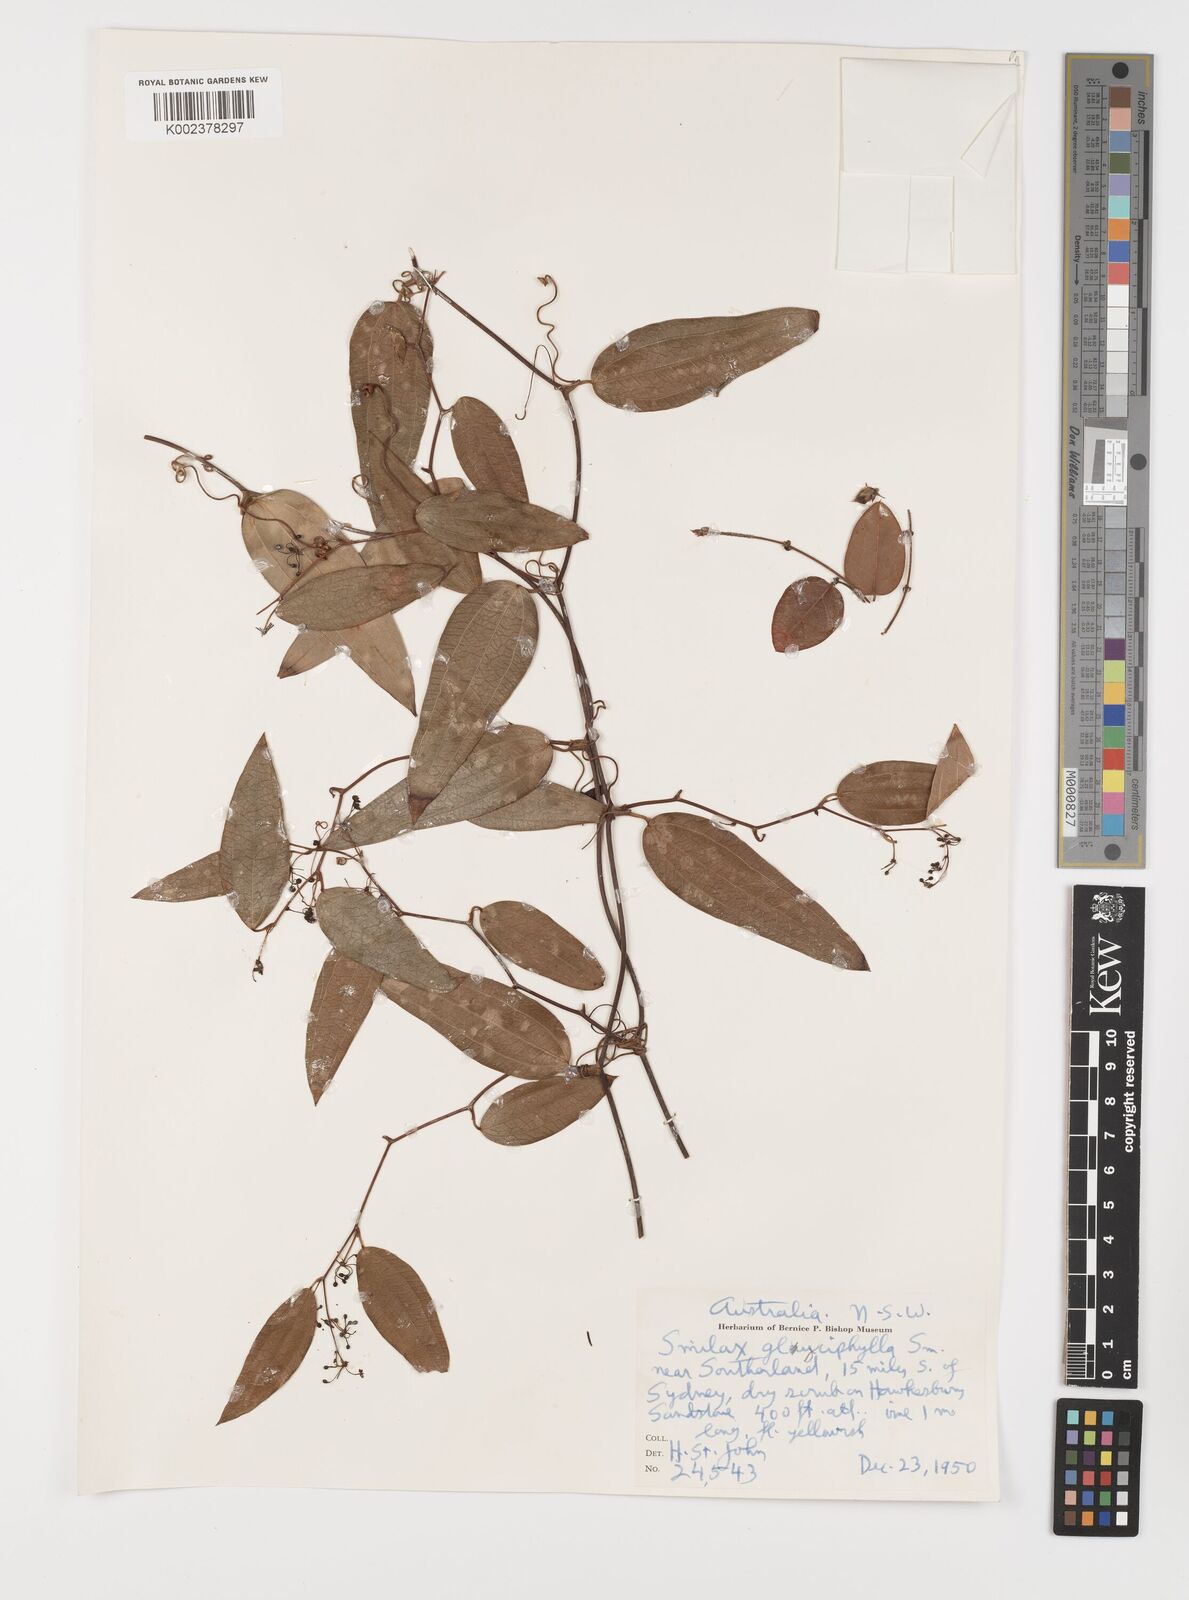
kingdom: Plantae
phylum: Tracheophyta
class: Liliopsida
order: Liliales
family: Smilacaceae
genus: Smilax
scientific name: Smilax
